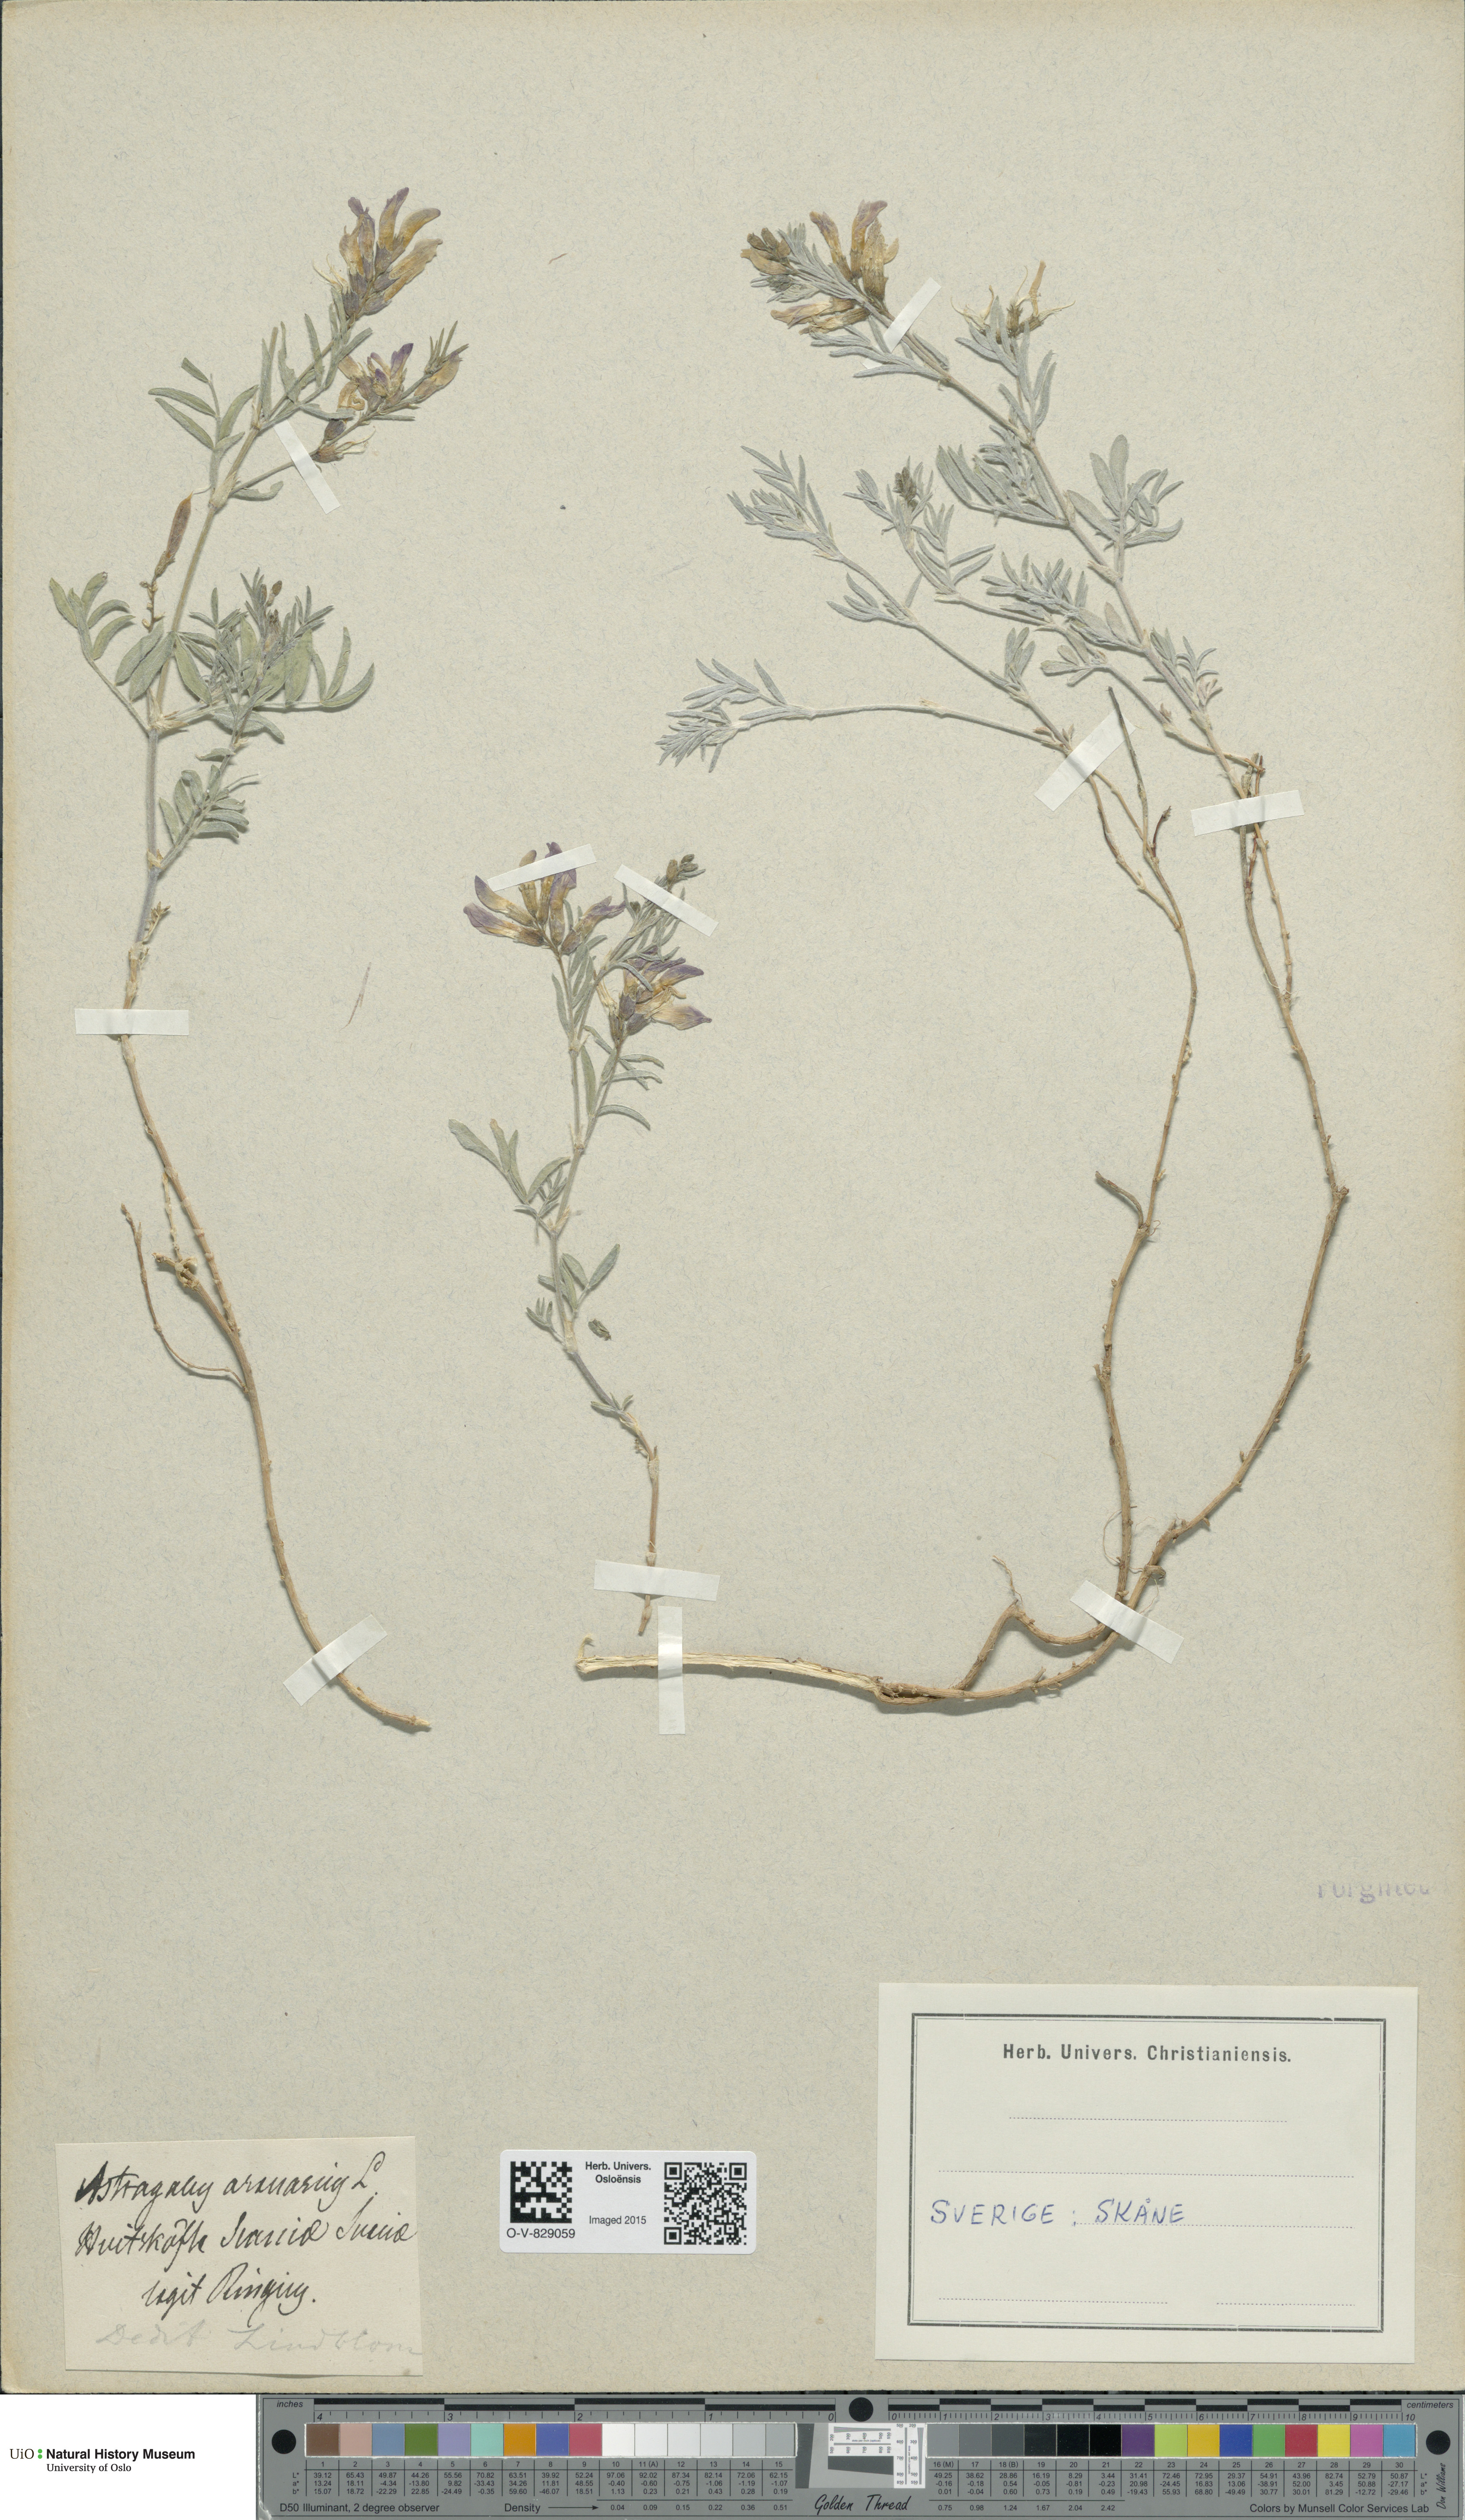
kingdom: Plantae
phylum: Tracheophyta
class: Magnoliopsida
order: Fabales
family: Fabaceae
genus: Astragalus
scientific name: Astragalus arenarius
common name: Arenarious milk-vetch
